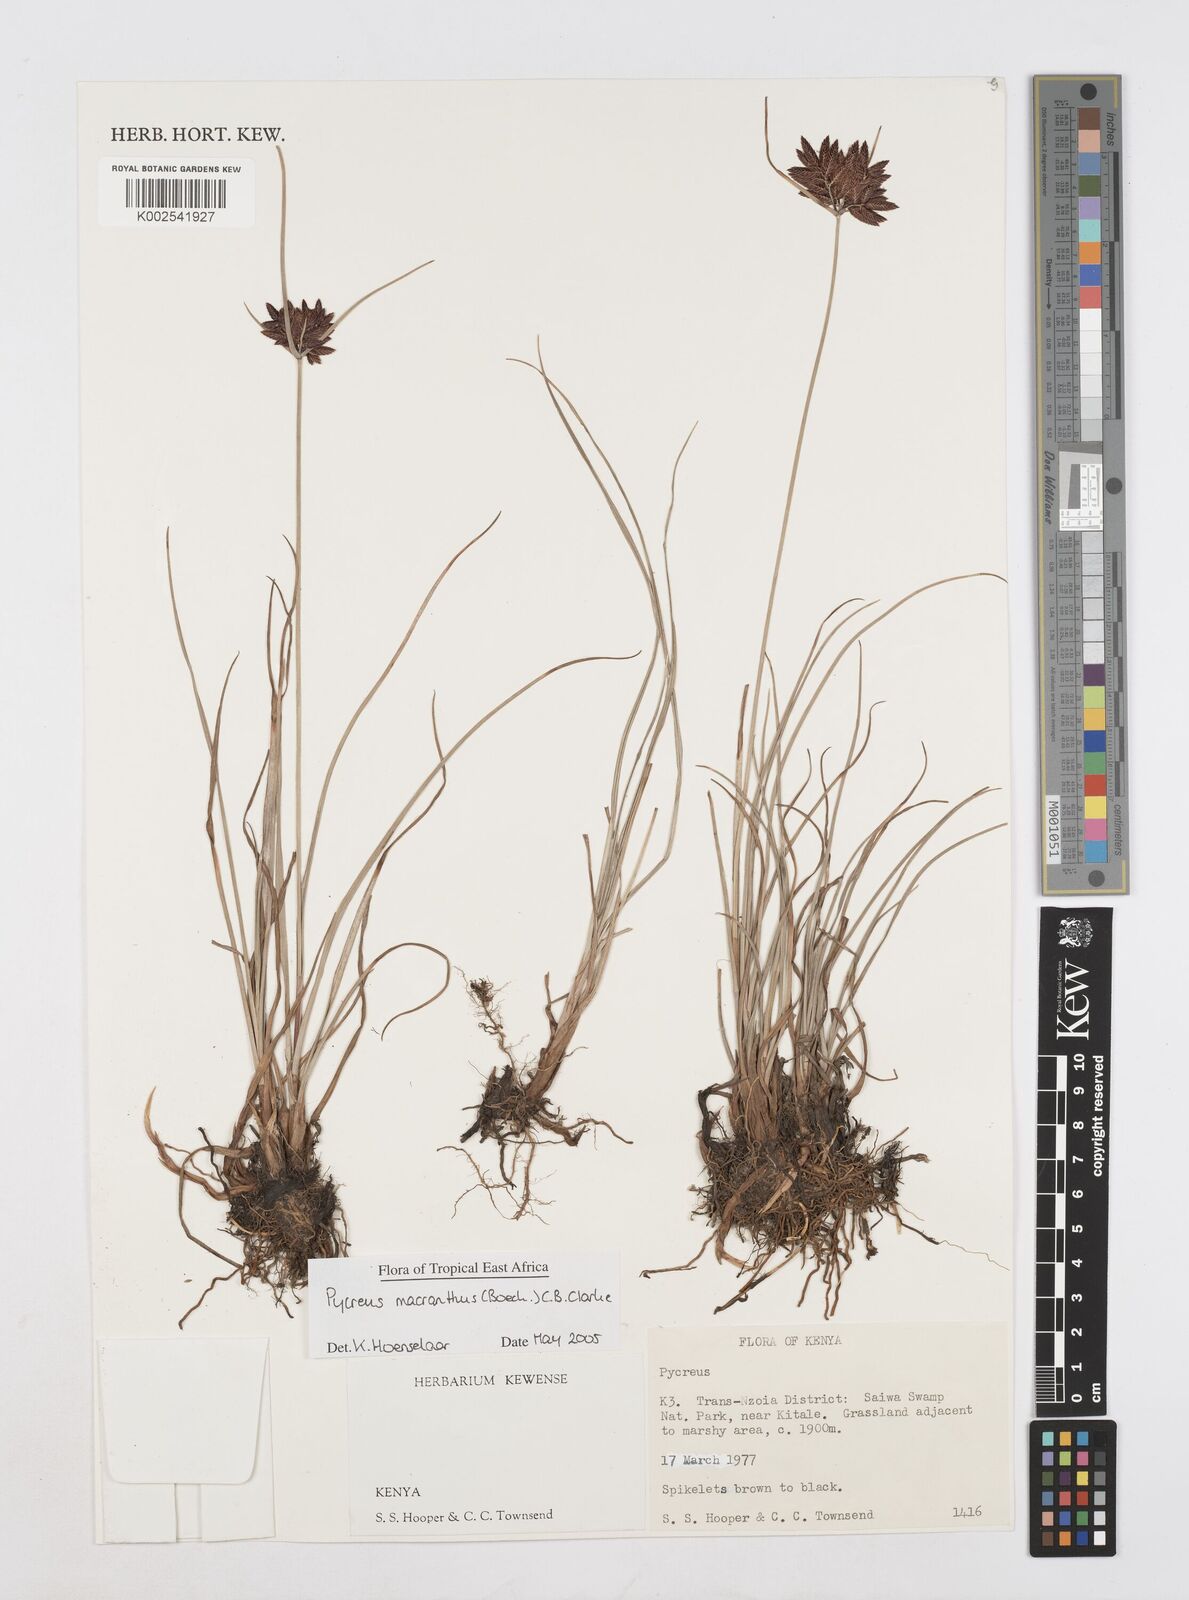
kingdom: Plantae
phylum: Tracheophyta
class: Liliopsida
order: Poales
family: Cyperaceae
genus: Cyperus
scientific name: Cyperus nigricans
